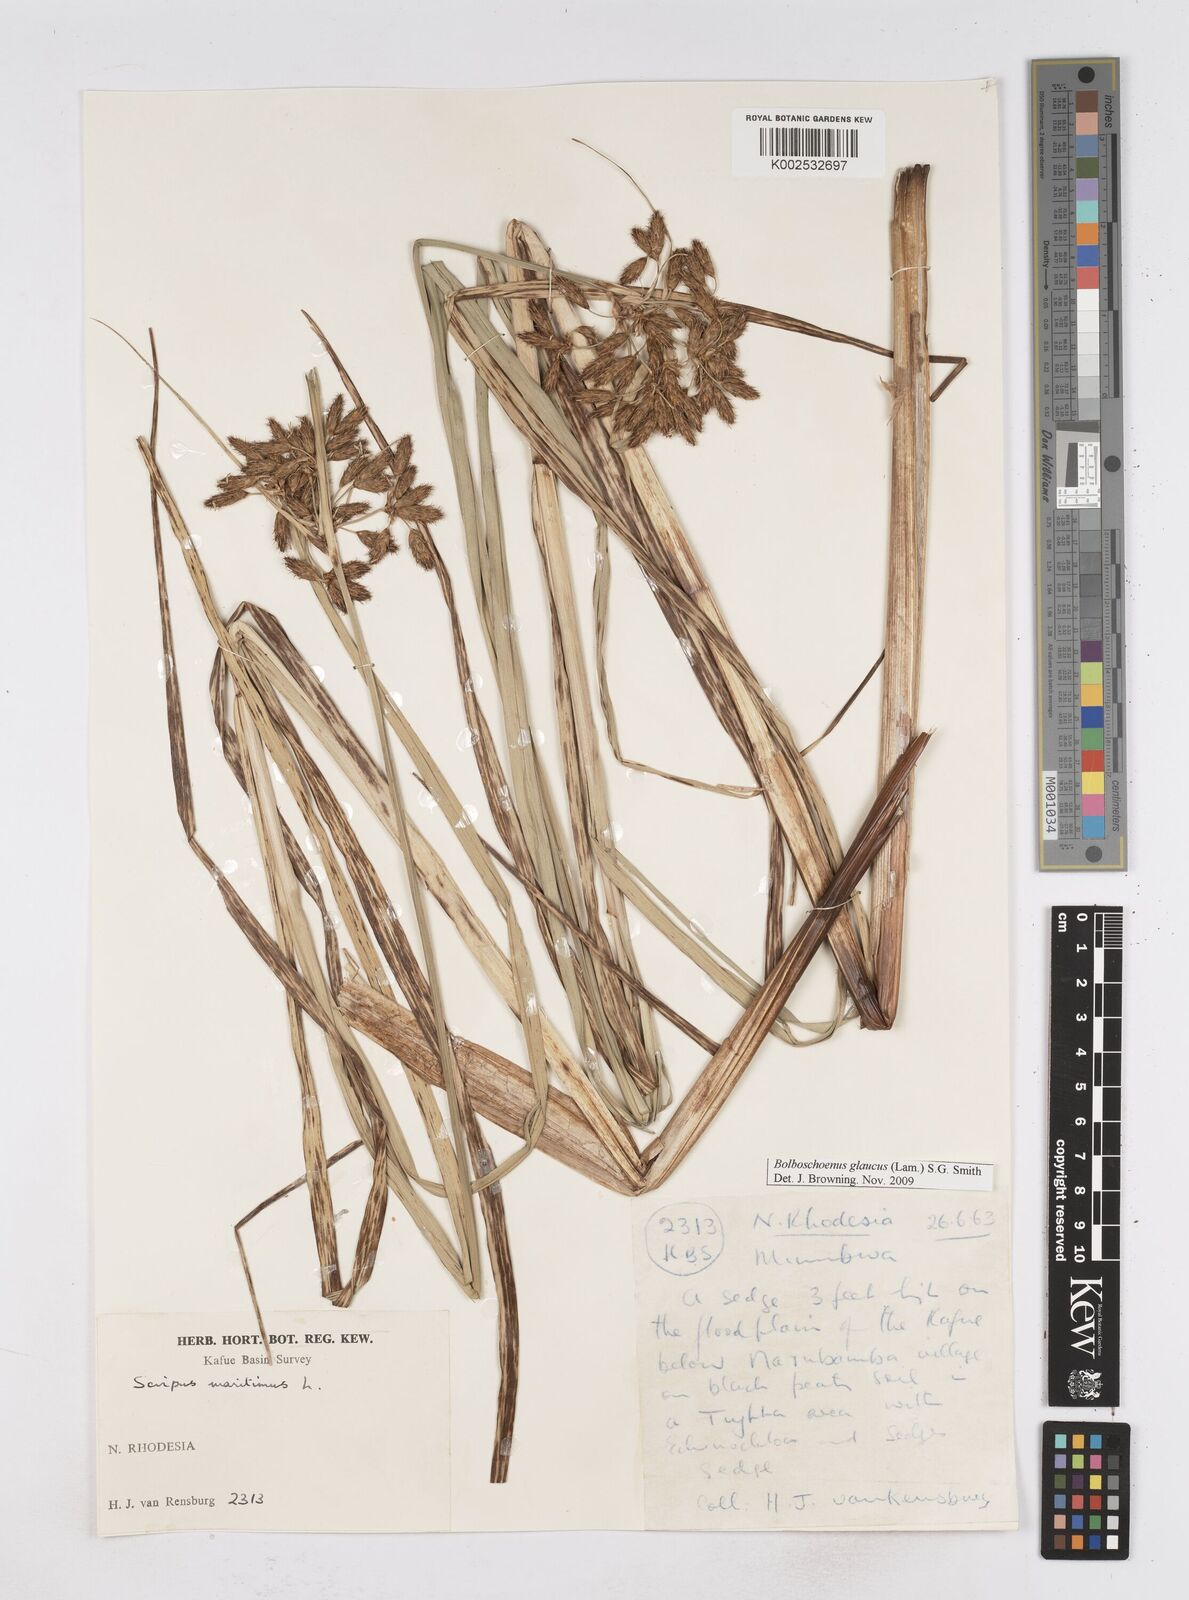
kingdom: Plantae
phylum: Tracheophyta
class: Liliopsida
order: Poales
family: Cyperaceae
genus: Bolboschoenus
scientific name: Bolboschoenus glaucus
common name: Tuberous bulrush
